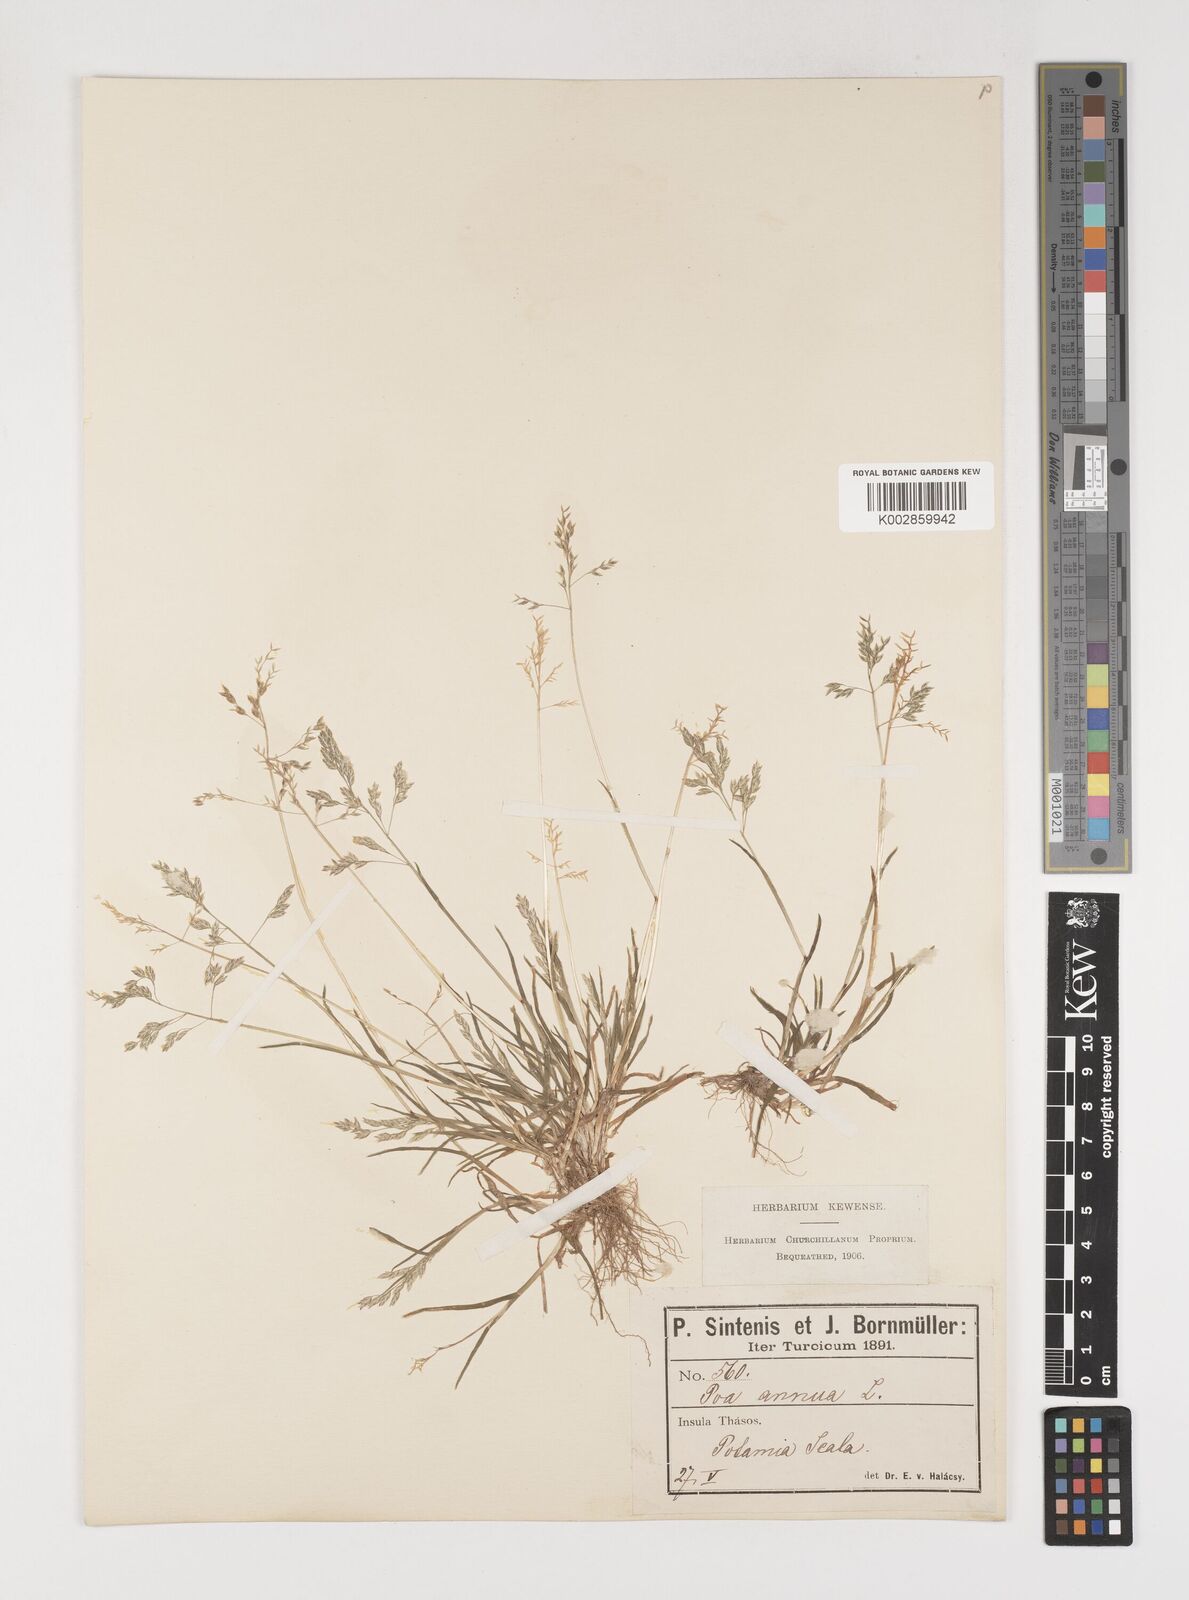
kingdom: Plantae
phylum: Tracheophyta
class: Liliopsida
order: Poales
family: Poaceae
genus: Poa
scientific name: Poa annua
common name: Annual bluegrass
